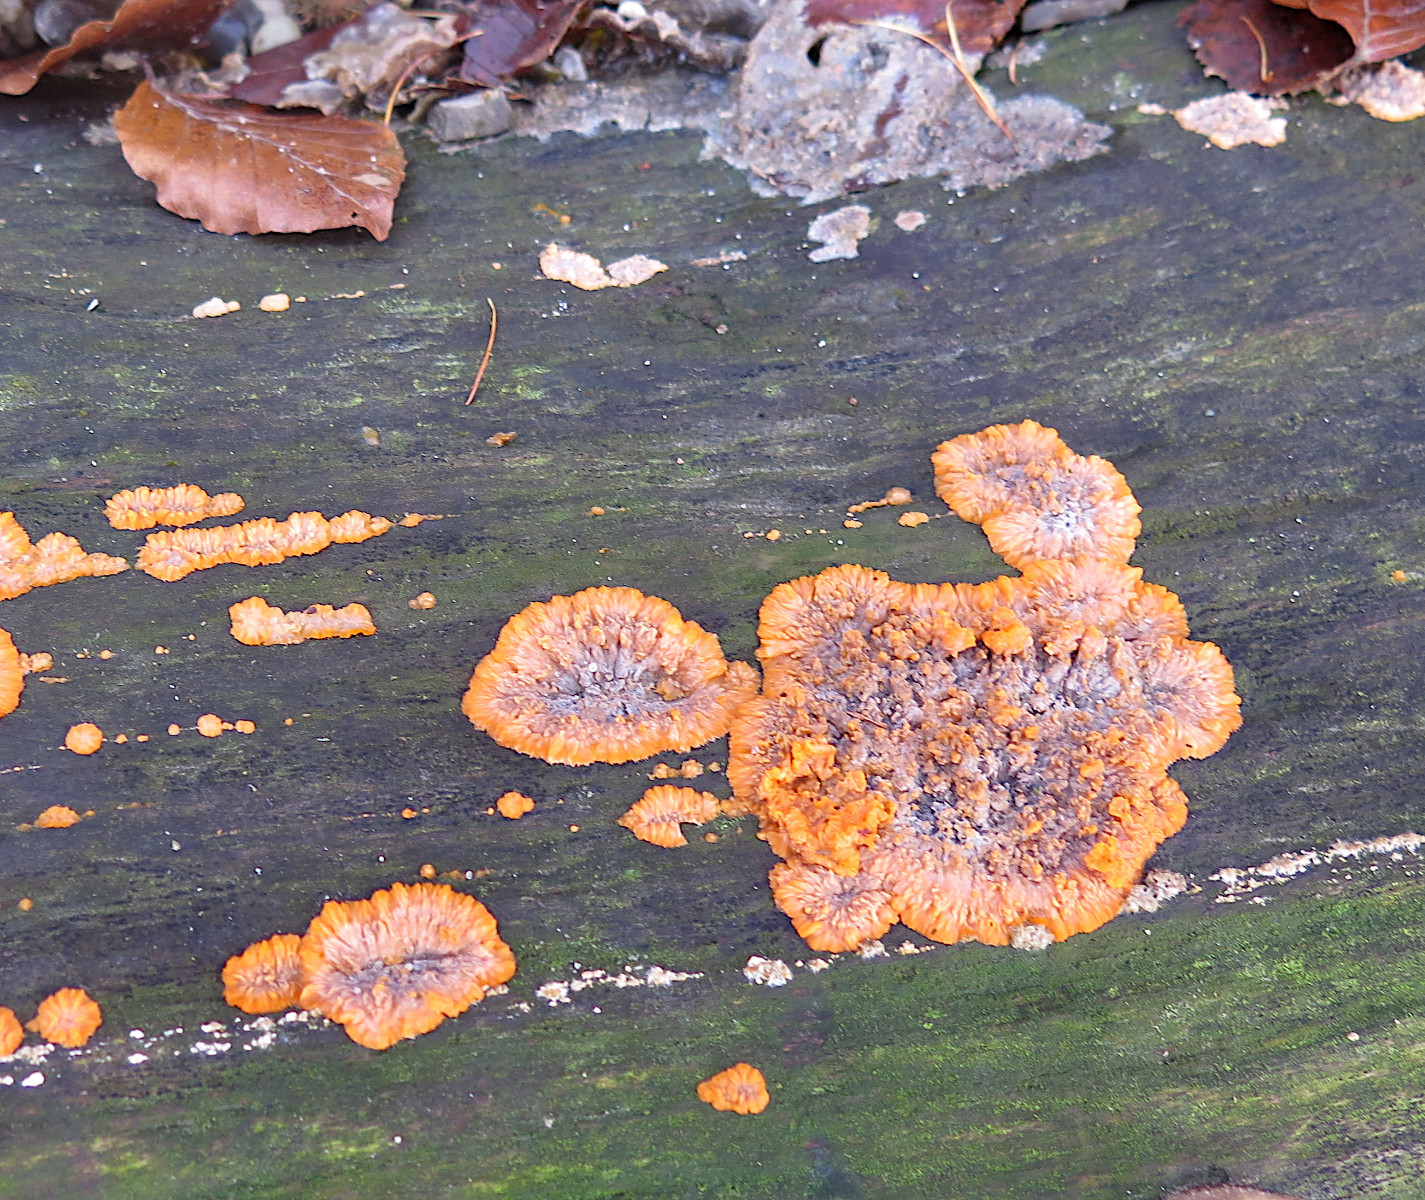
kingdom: Fungi
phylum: Basidiomycota
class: Agaricomycetes
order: Polyporales
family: Meruliaceae
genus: Phlebia
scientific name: Phlebia radiata
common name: stråle-åresvamp
